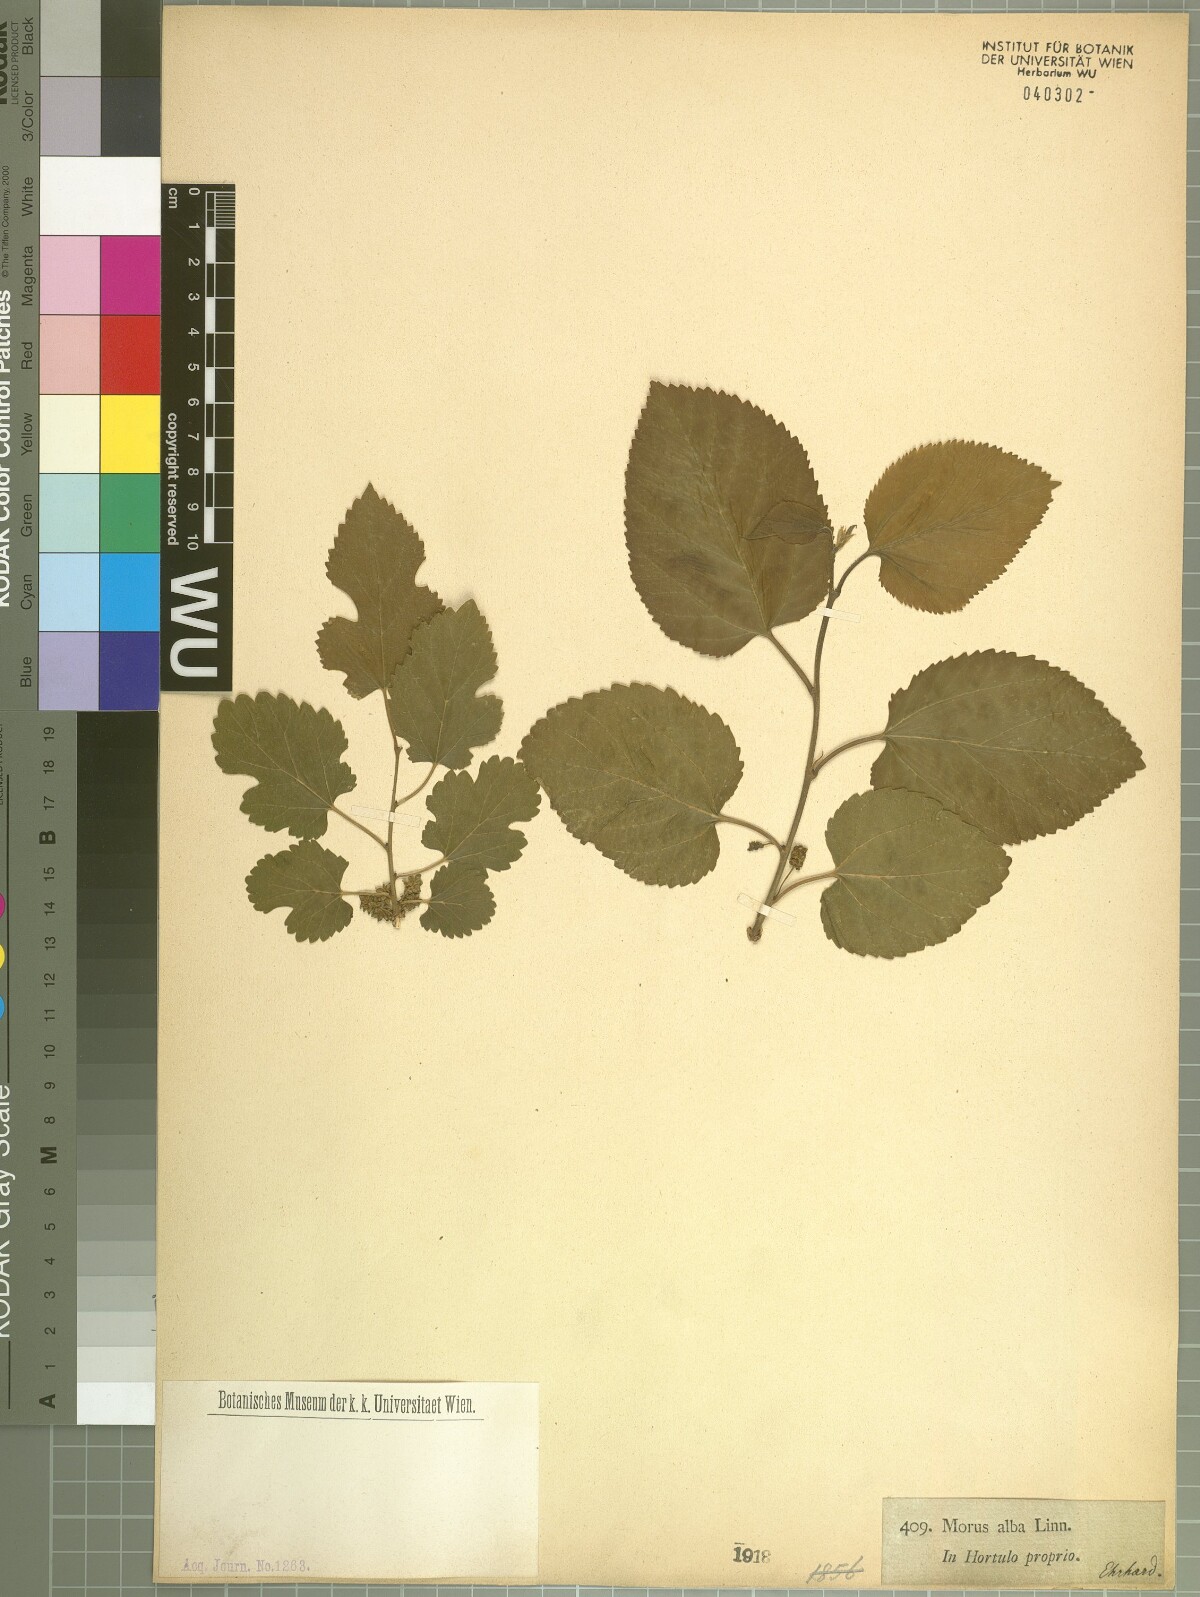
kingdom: Plantae
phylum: Tracheophyta
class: Magnoliopsida
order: Rosales
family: Moraceae
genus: Morus
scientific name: Morus alba
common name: White mulberry
